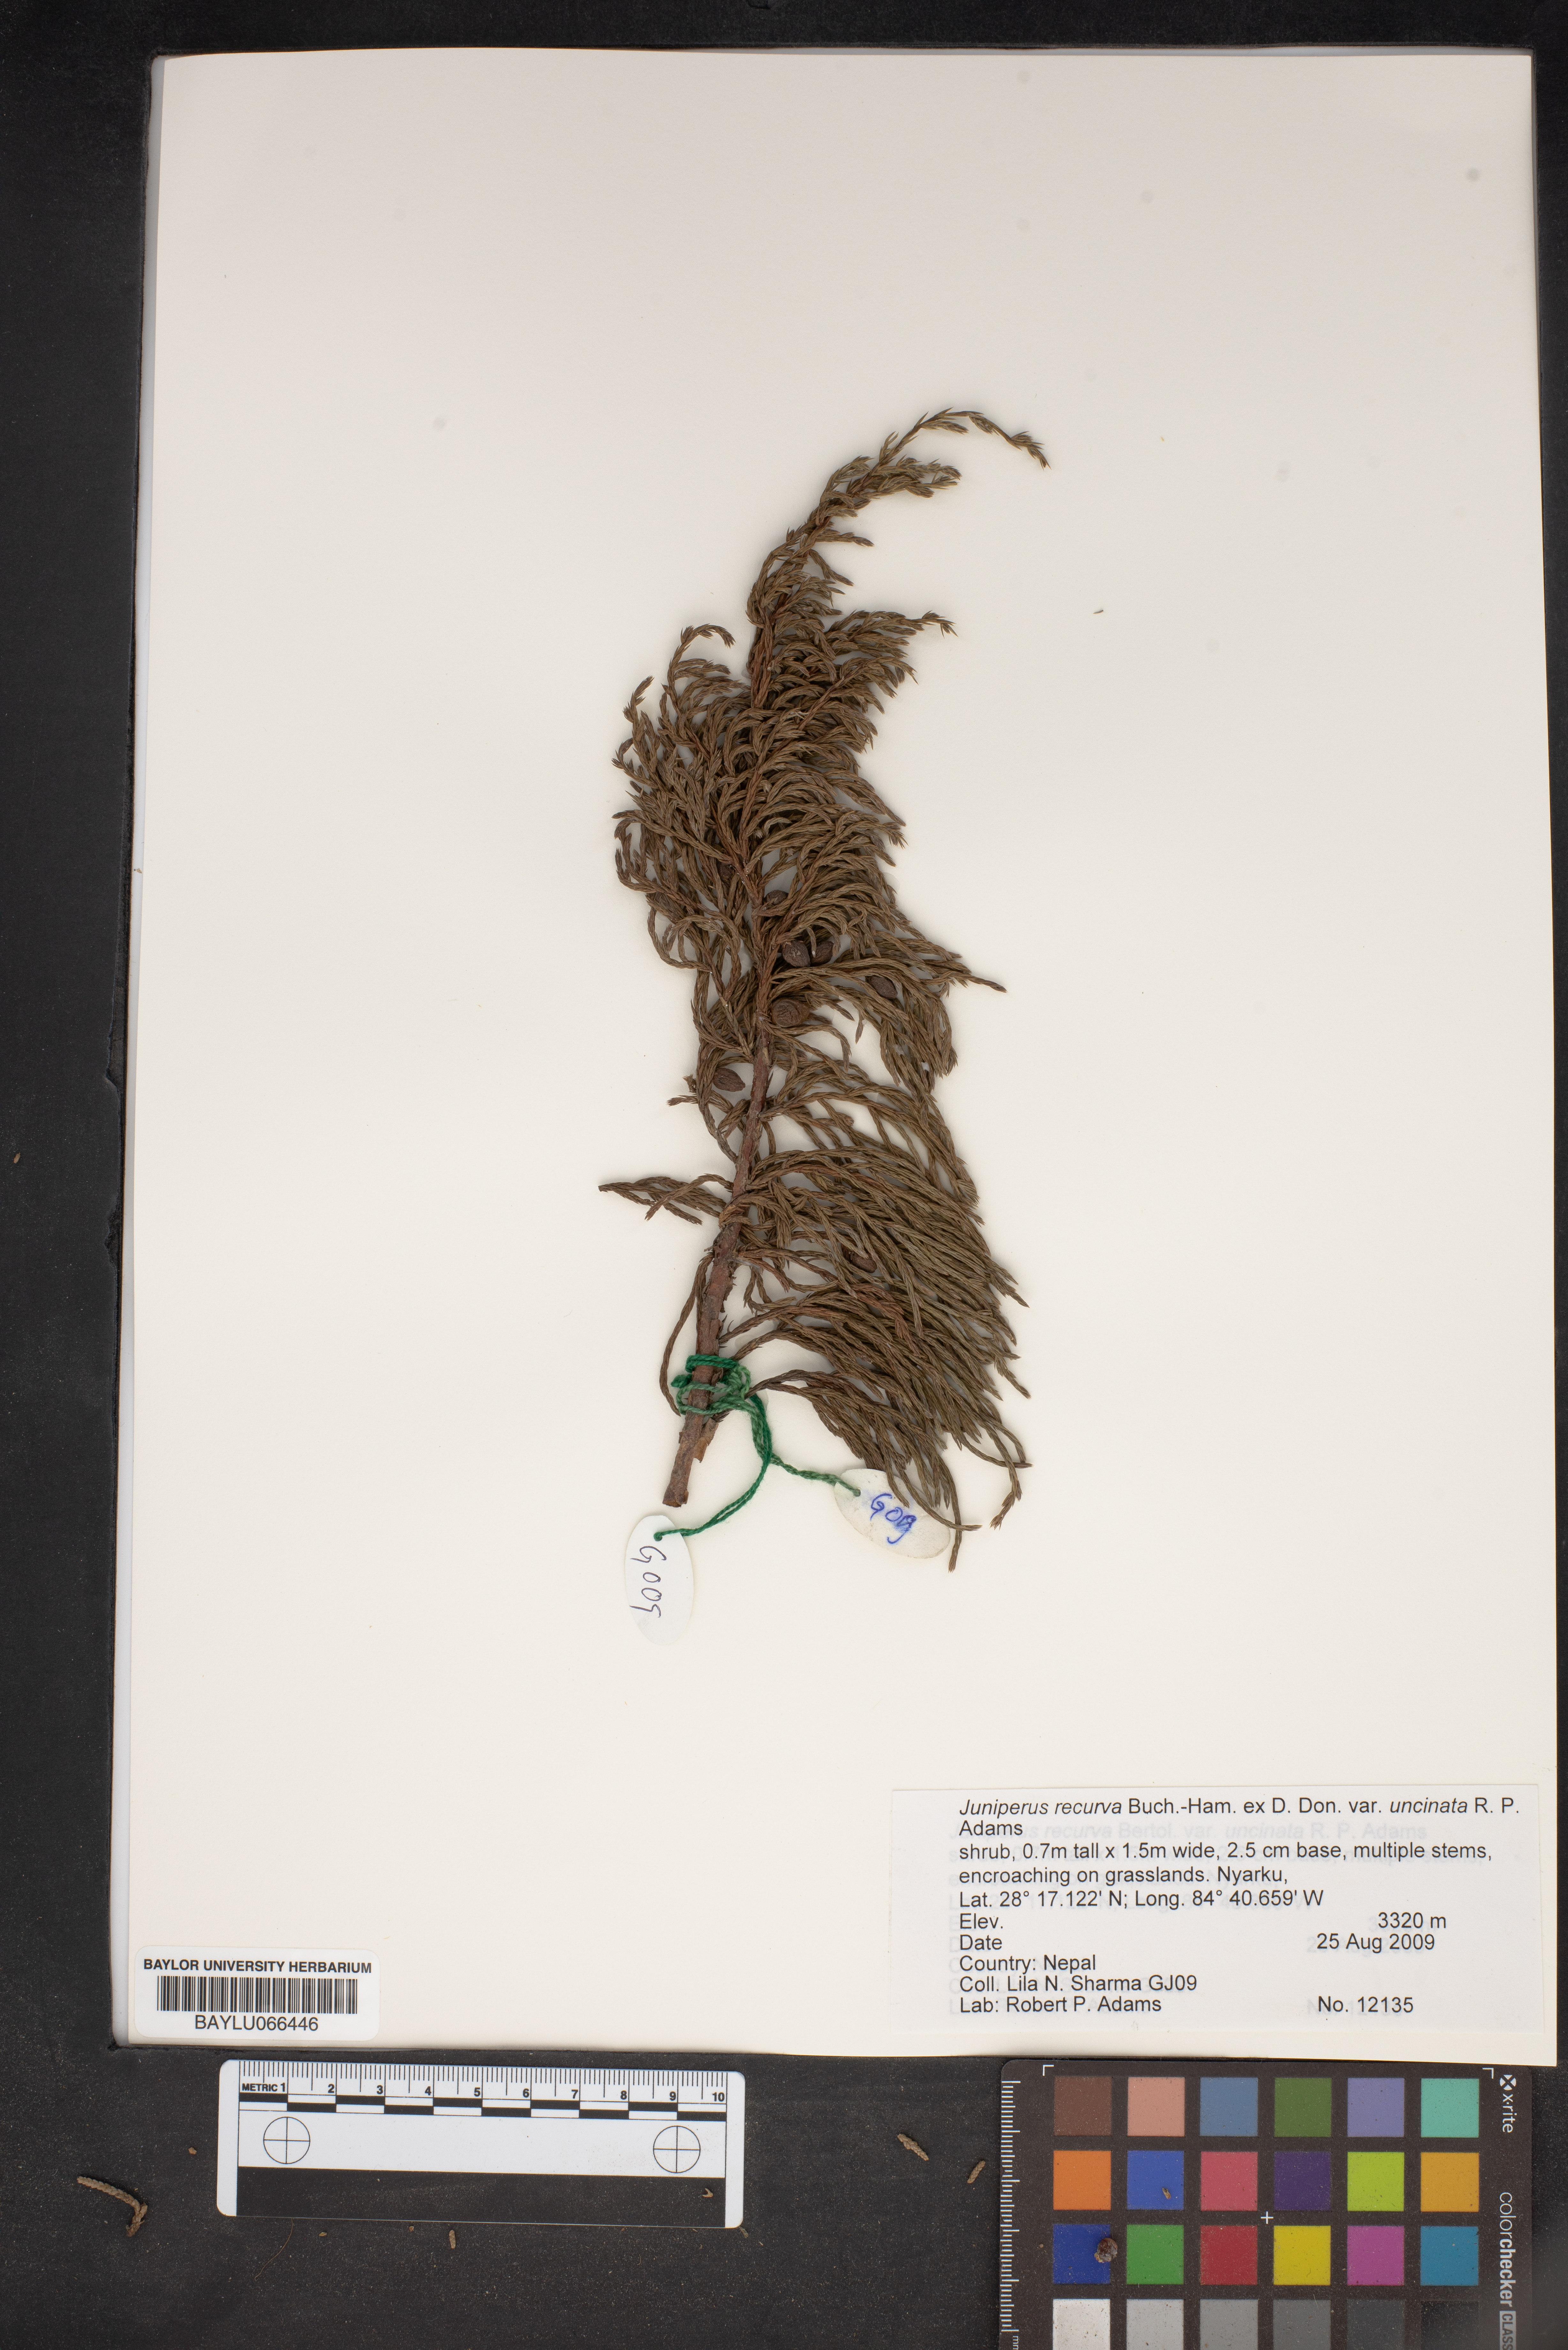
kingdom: Plantae
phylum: Tracheophyta
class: Pinopsida
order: Pinales
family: Cupressaceae
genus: Juniperus
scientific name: Juniperus recurva
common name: Drooping juniper
